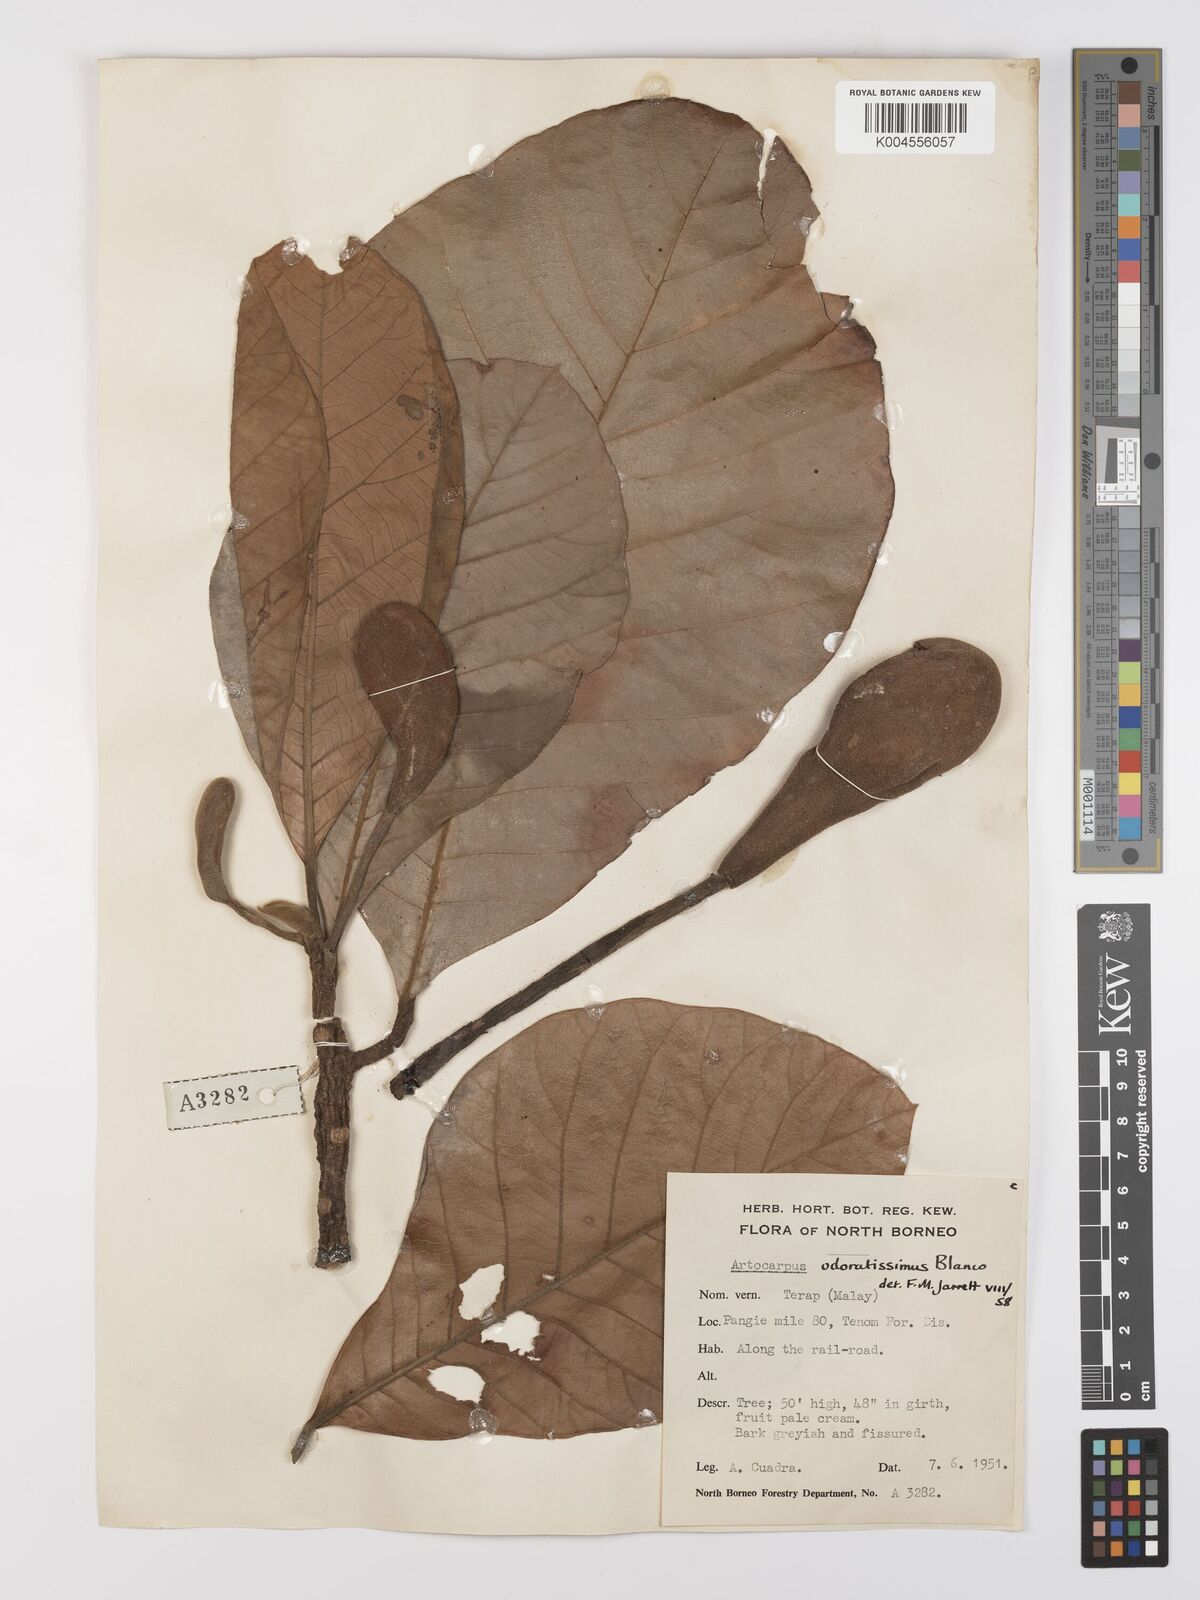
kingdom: Plantae
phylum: Tracheophyta
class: Magnoliopsida
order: Rosales
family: Moraceae
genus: Artocarpus
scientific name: Artocarpus odoratissimus
